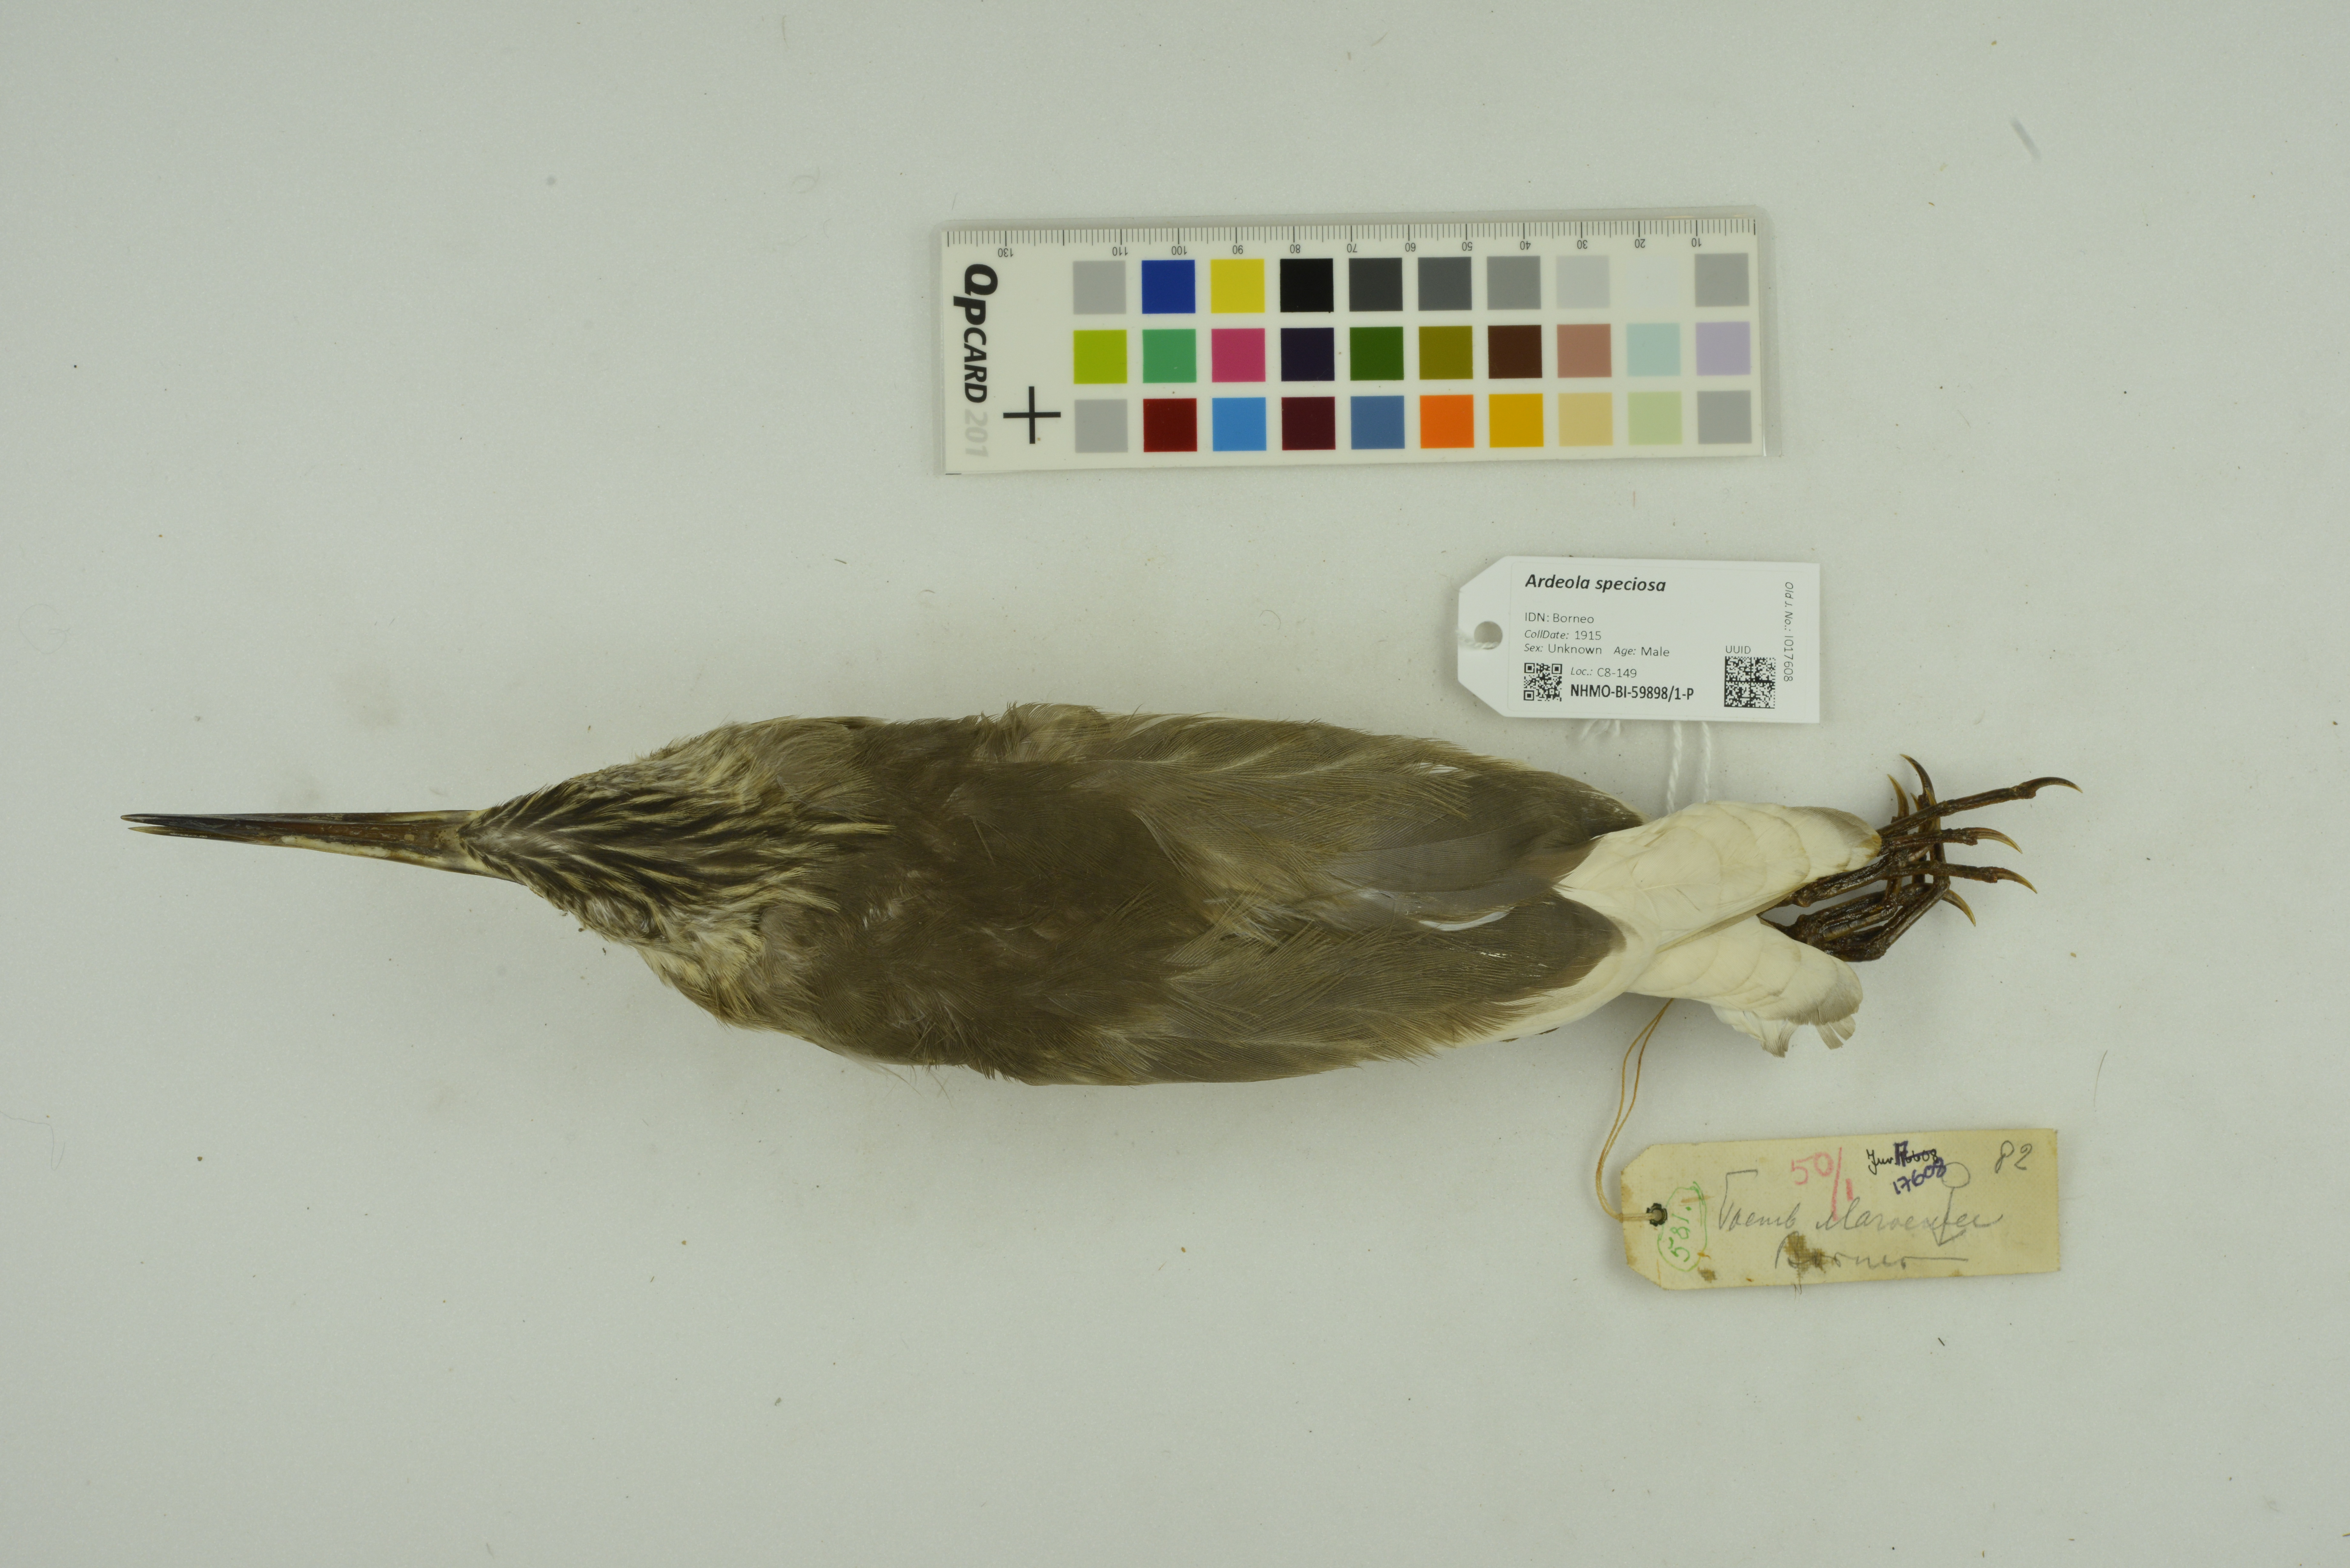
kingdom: Animalia
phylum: Chordata
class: Aves
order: Pelecaniformes
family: Ardeidae
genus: Ardeola
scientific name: Ardeola speciosa
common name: Javan pond heron
